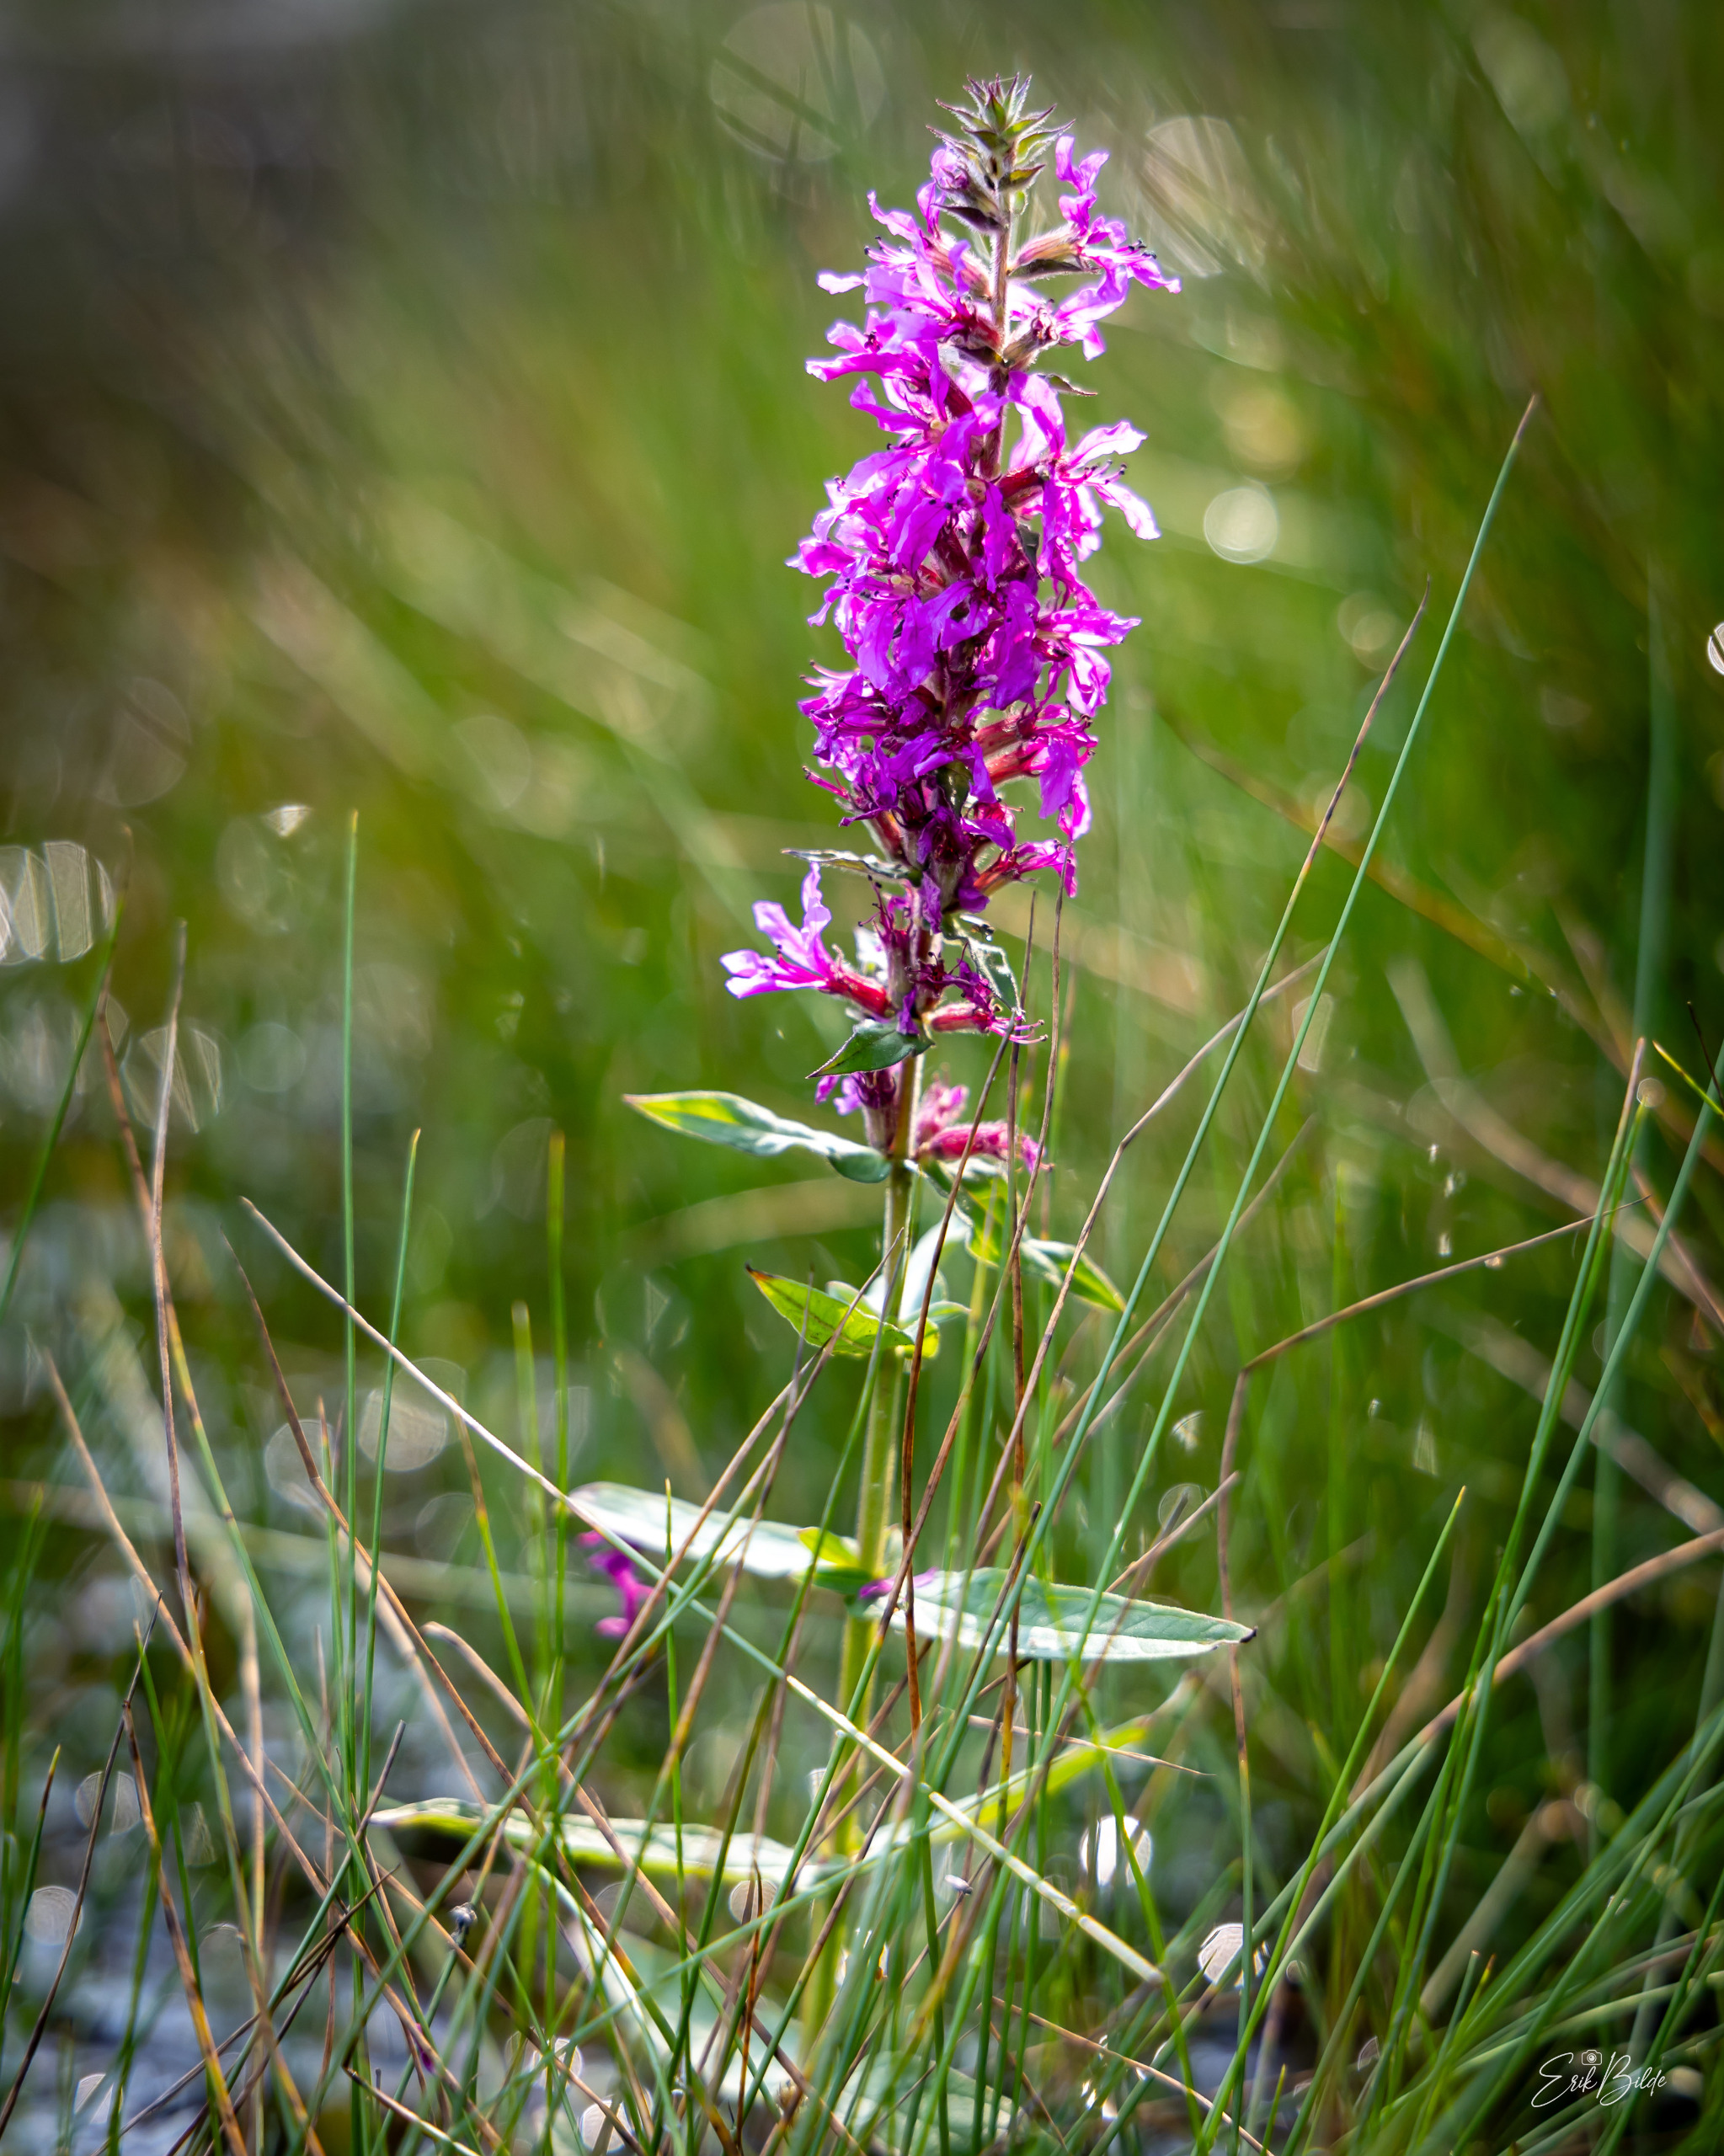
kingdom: Plantae
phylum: Tracheophyta
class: Magnoliopsida
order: Myrtales
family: Lythraceae
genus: Lythrum
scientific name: Lythrum salicaria
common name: Kattehale
